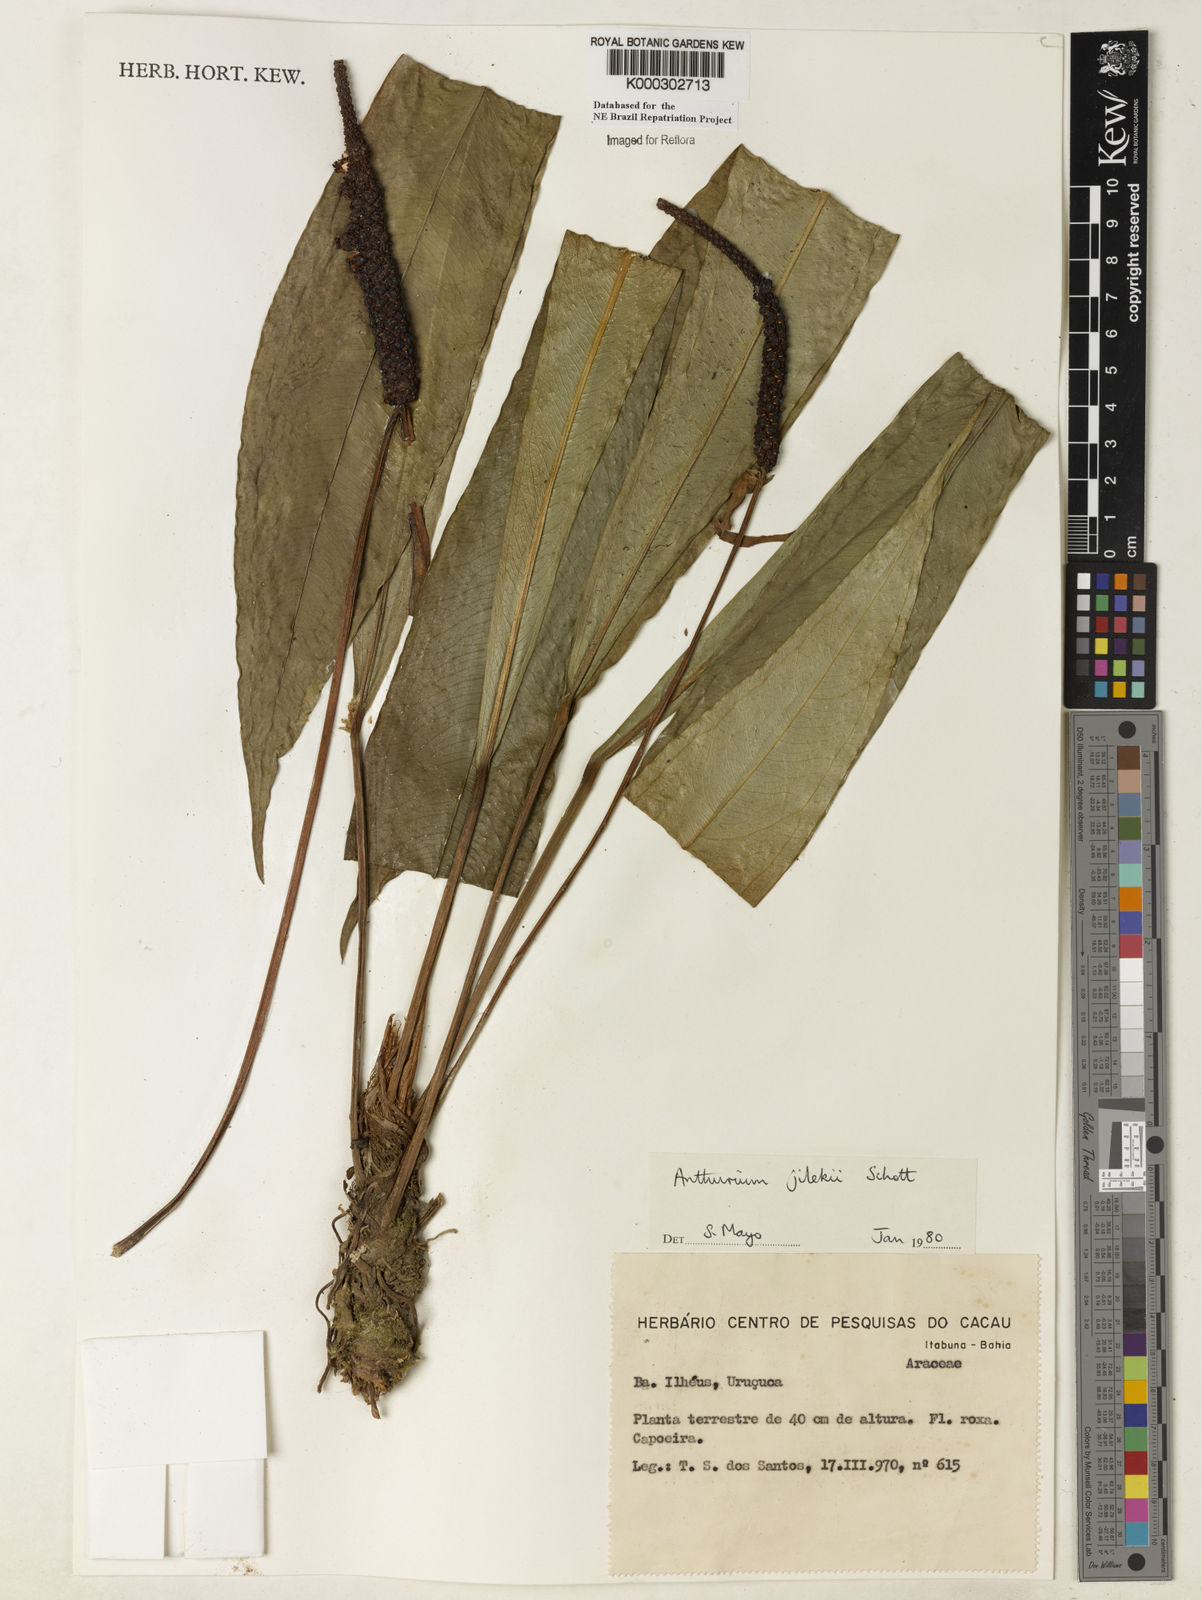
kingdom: Plantae
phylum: Tracheophyta
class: Liliopsida
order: Alismatales
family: Araceae
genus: Anthurium
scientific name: Anthurium jilekii
